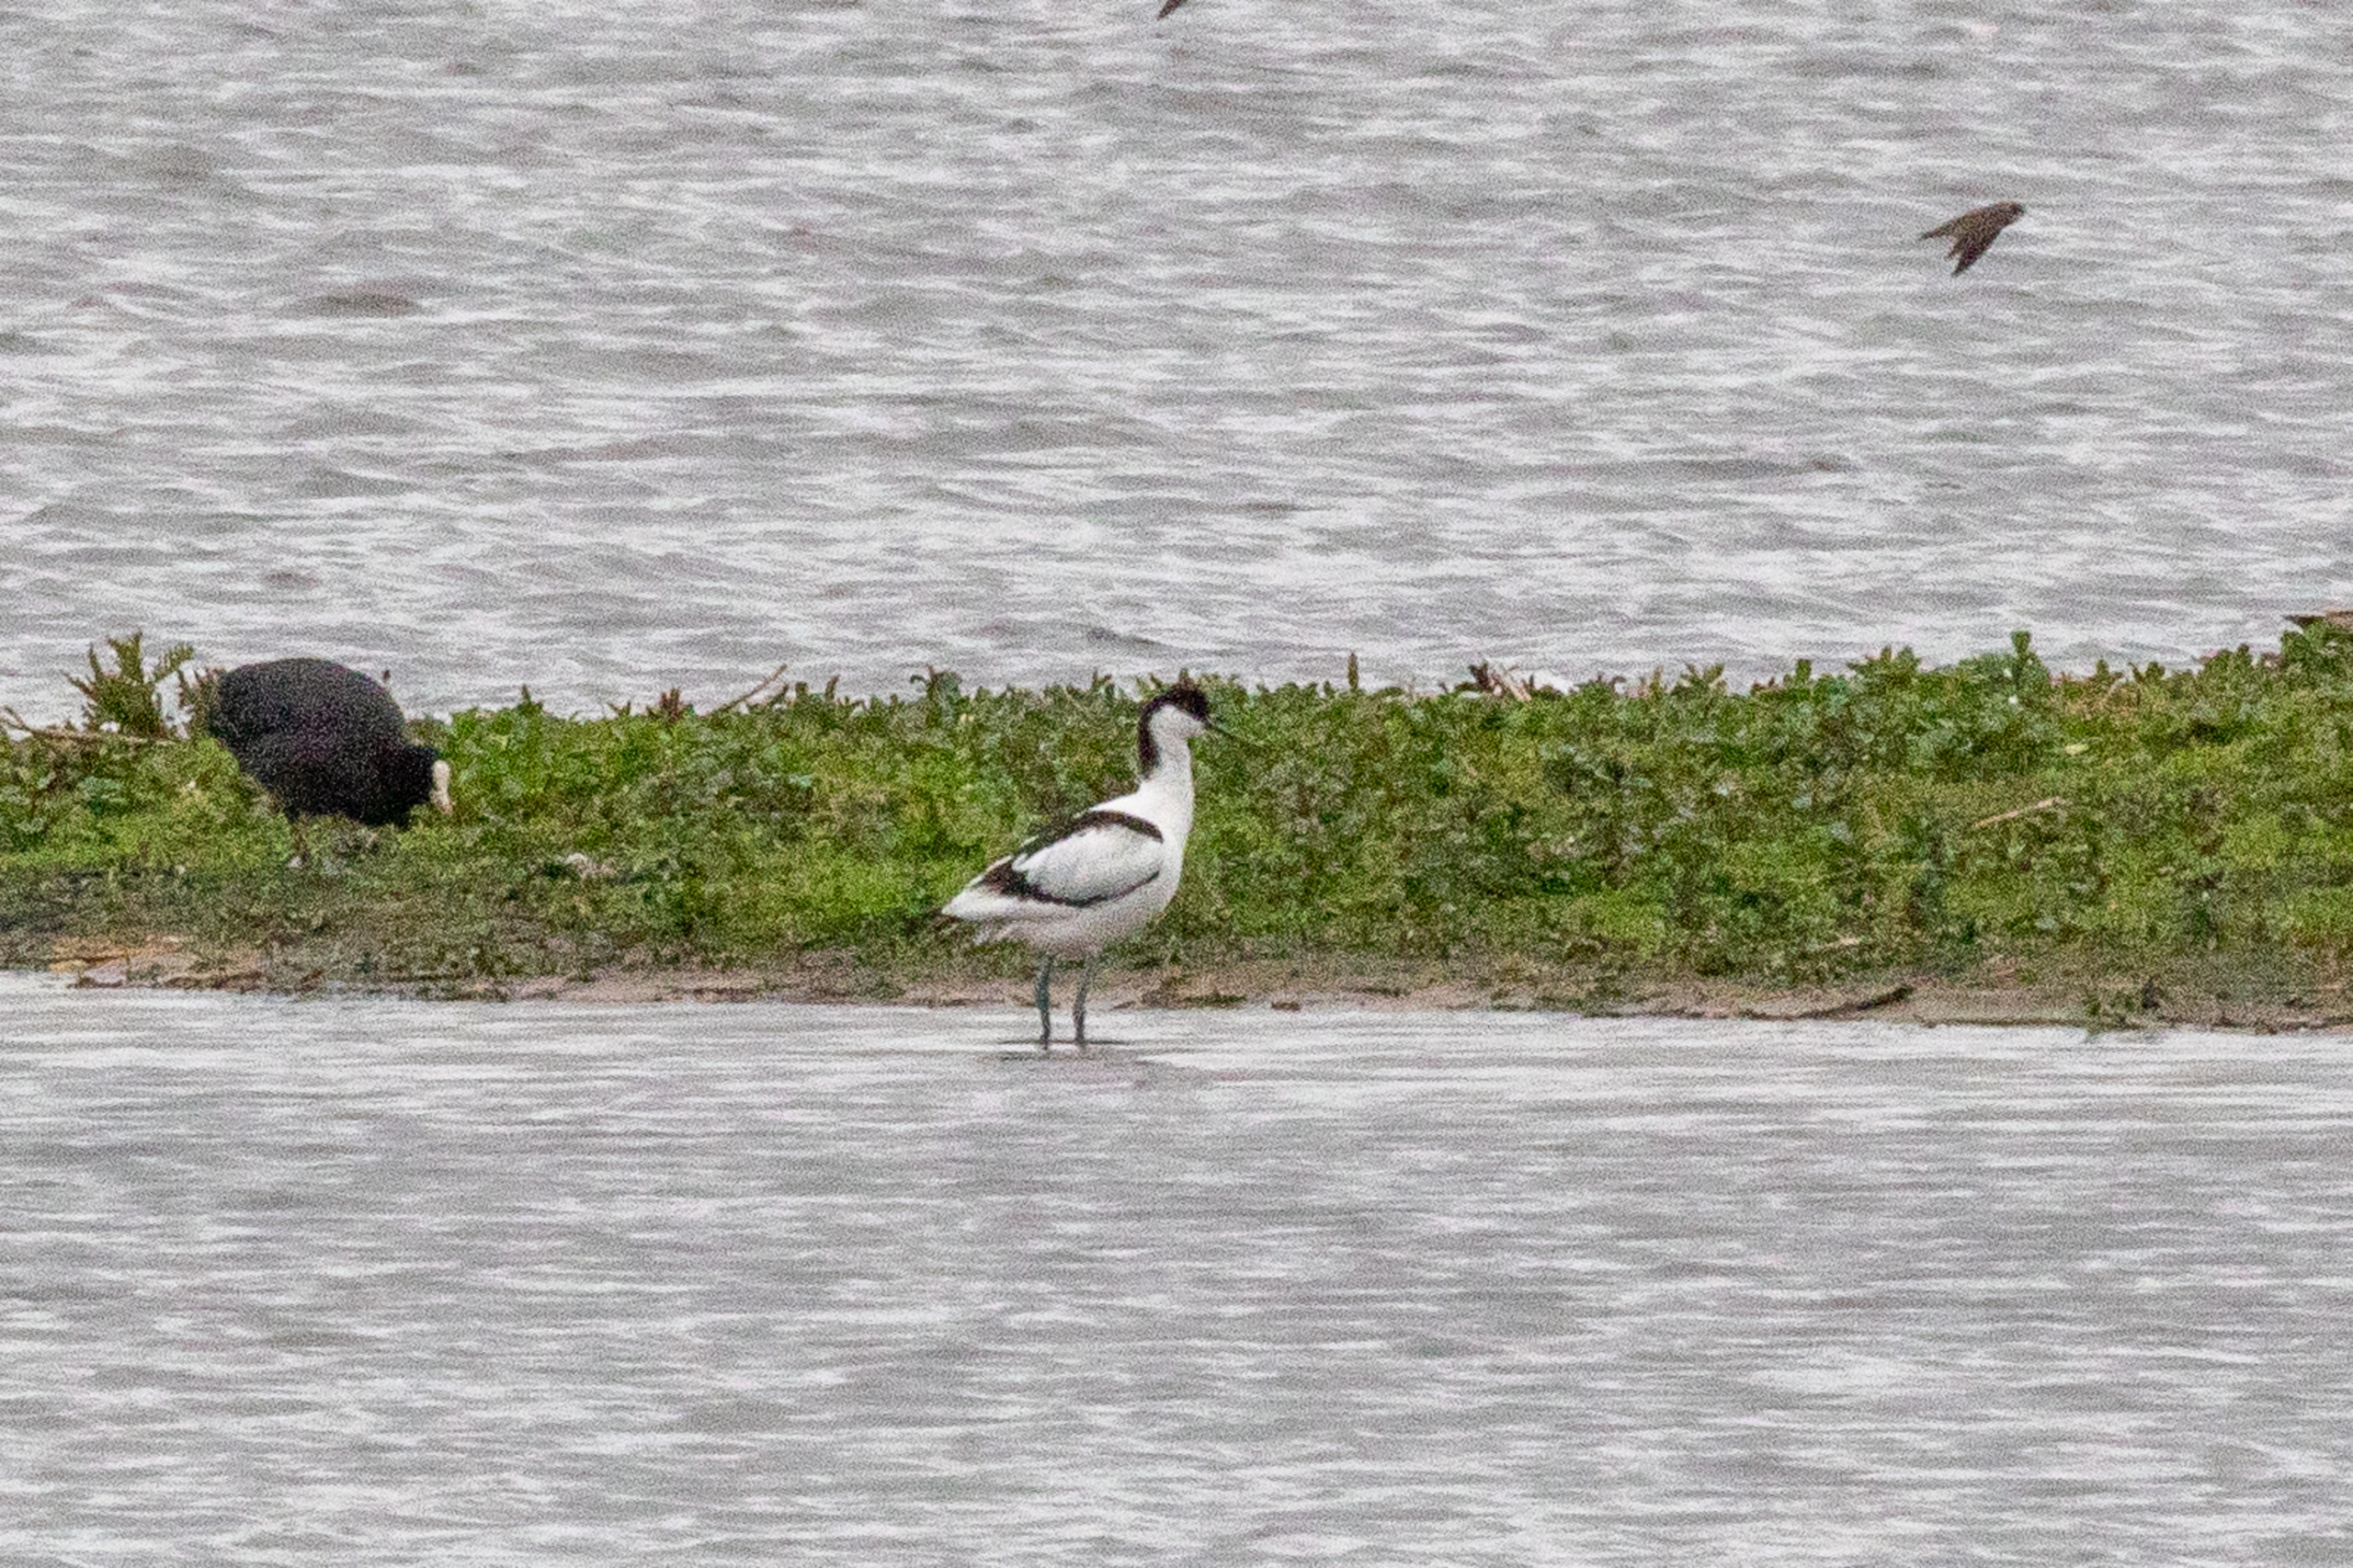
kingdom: Animalia
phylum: Chordata
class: Aves
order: Charadriiformes
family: Recurvirostridae
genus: Recurvirostra
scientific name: Recurvirostra avosetta
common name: Klyde
